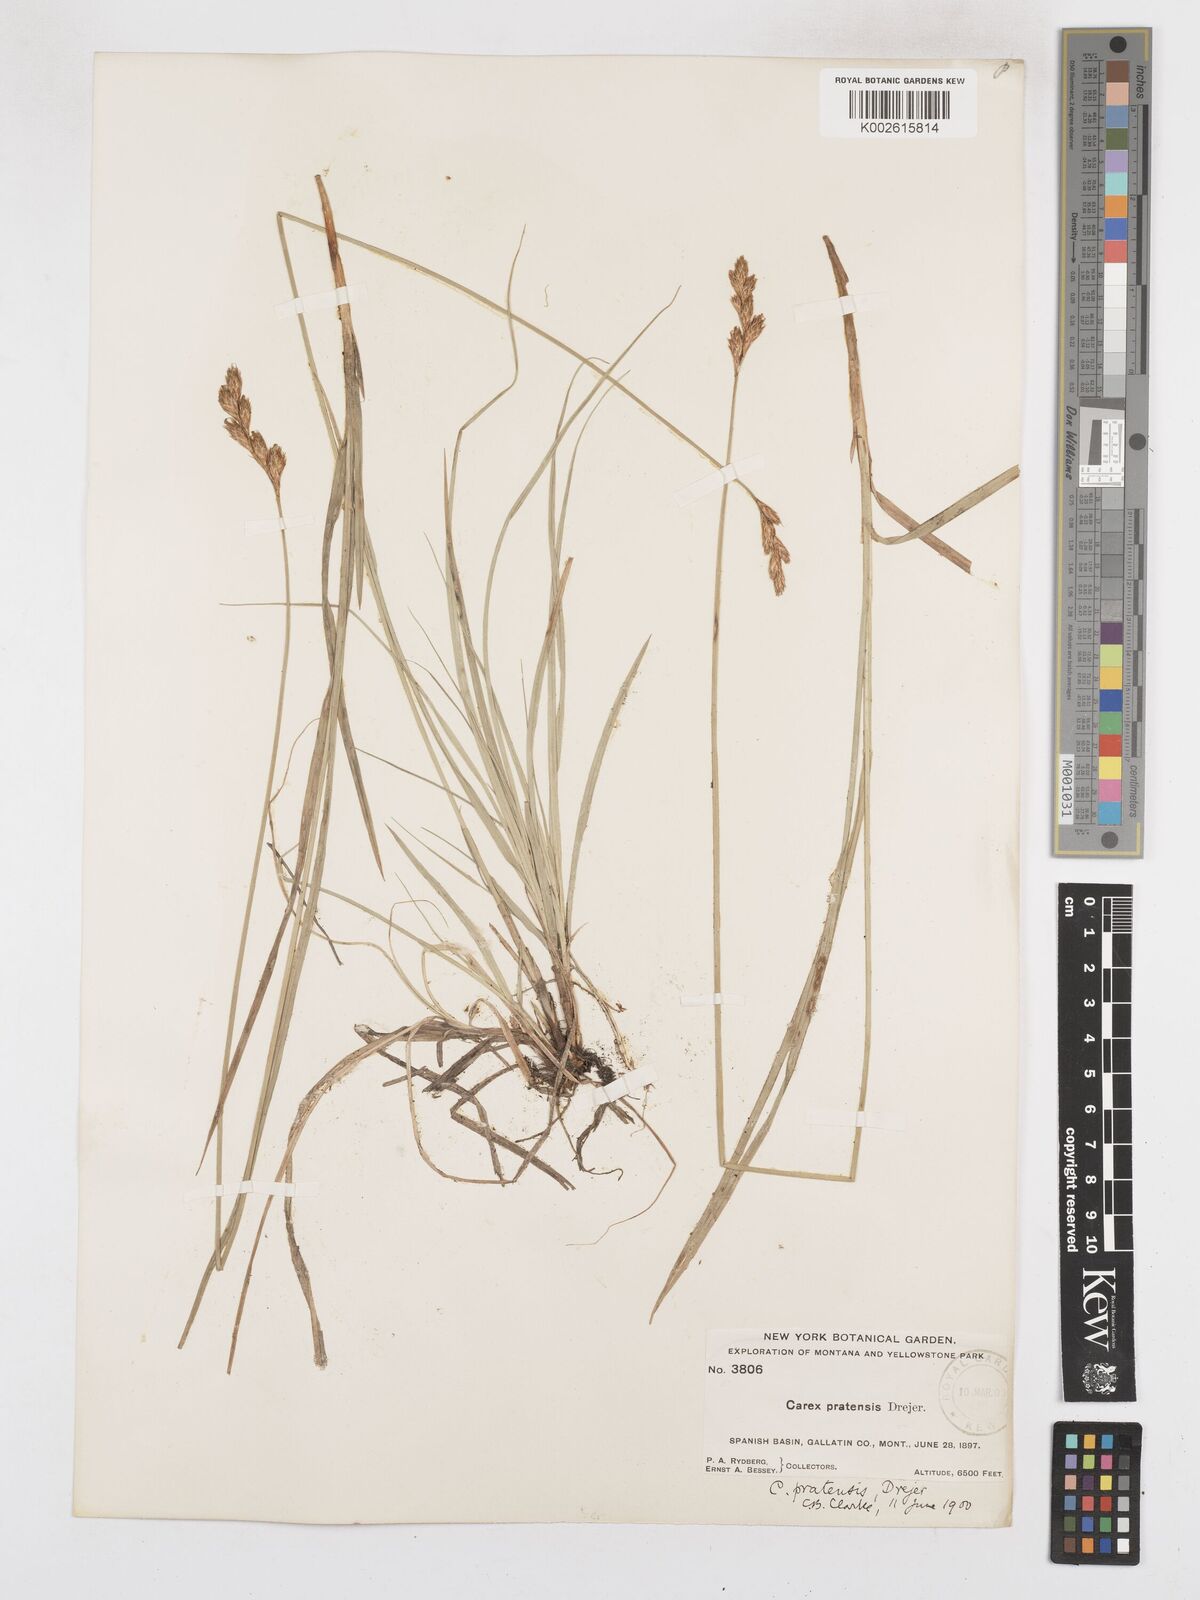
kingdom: Plantae
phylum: Tracheophyta
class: Liliopsida
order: Poales
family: Cyperaceae
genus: Carex
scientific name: Carex praticola
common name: Large-fruited oval sedge
